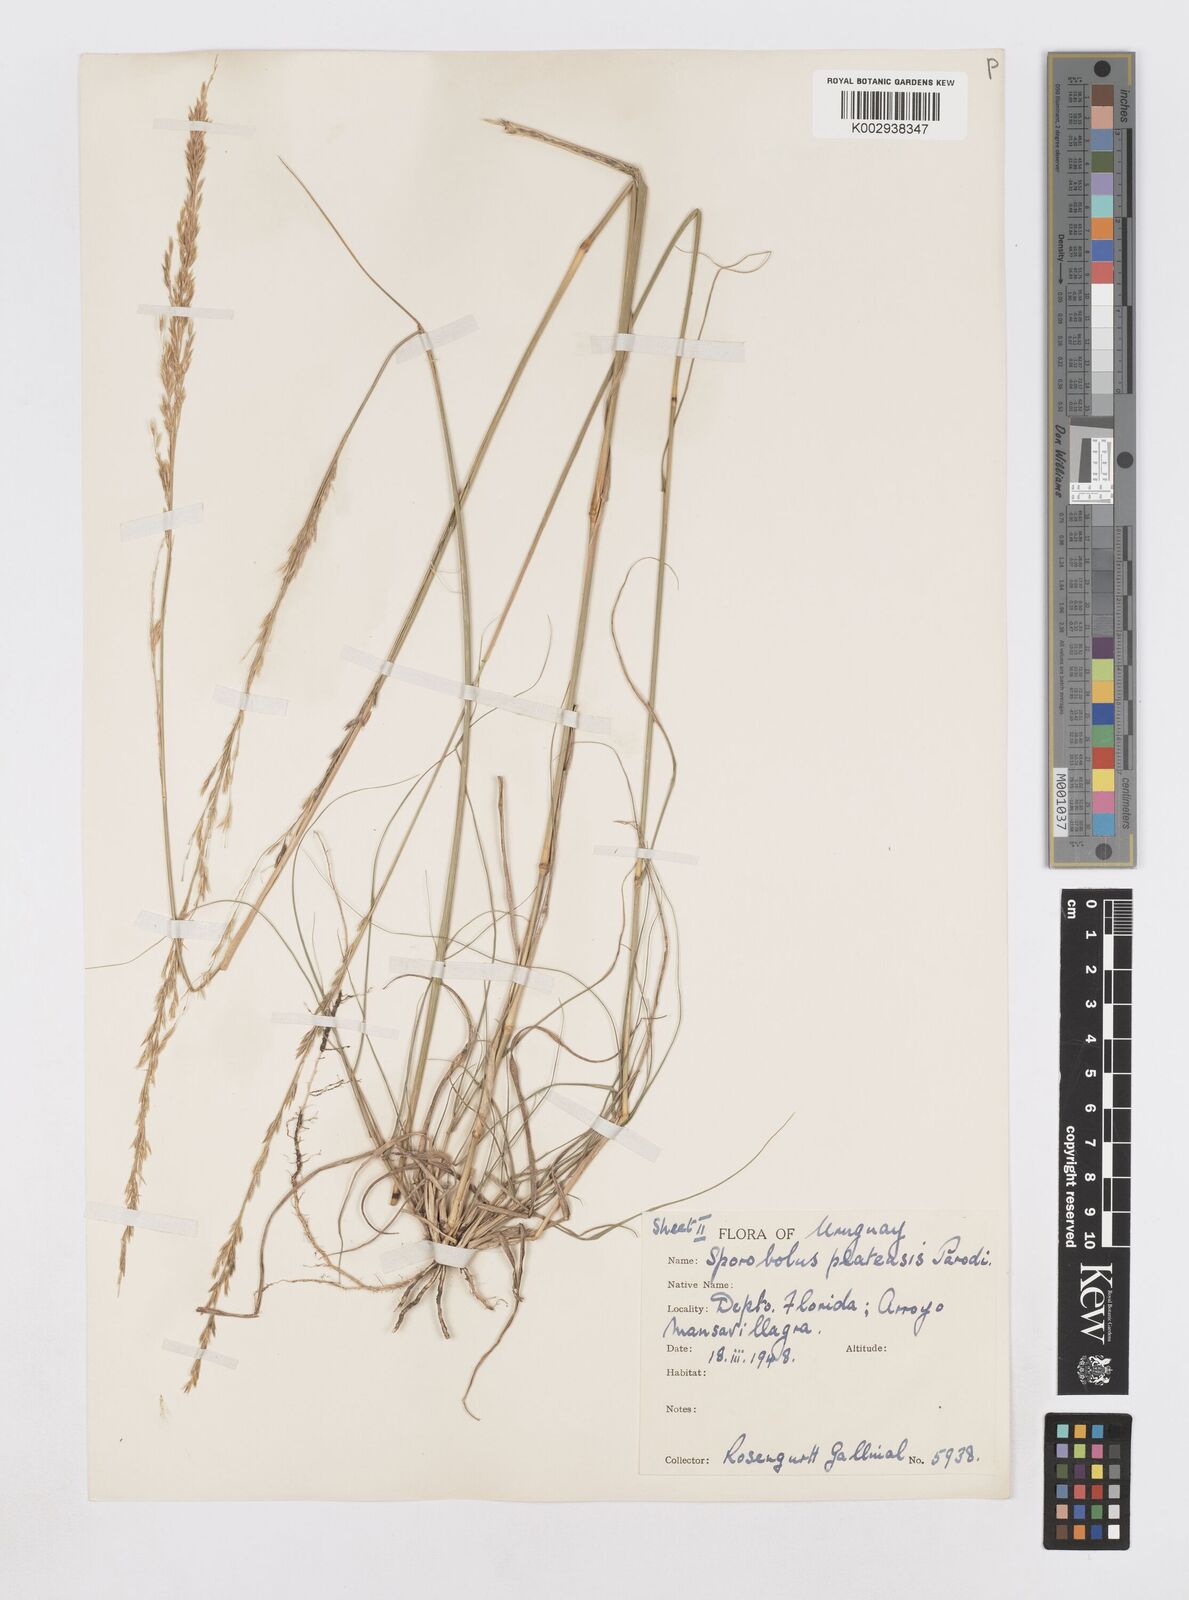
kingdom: Plantae
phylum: Tracheophyta
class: Liliopsida
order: Poales
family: Poaceae
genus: Sporobolus
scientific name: Sporobolus platensis
